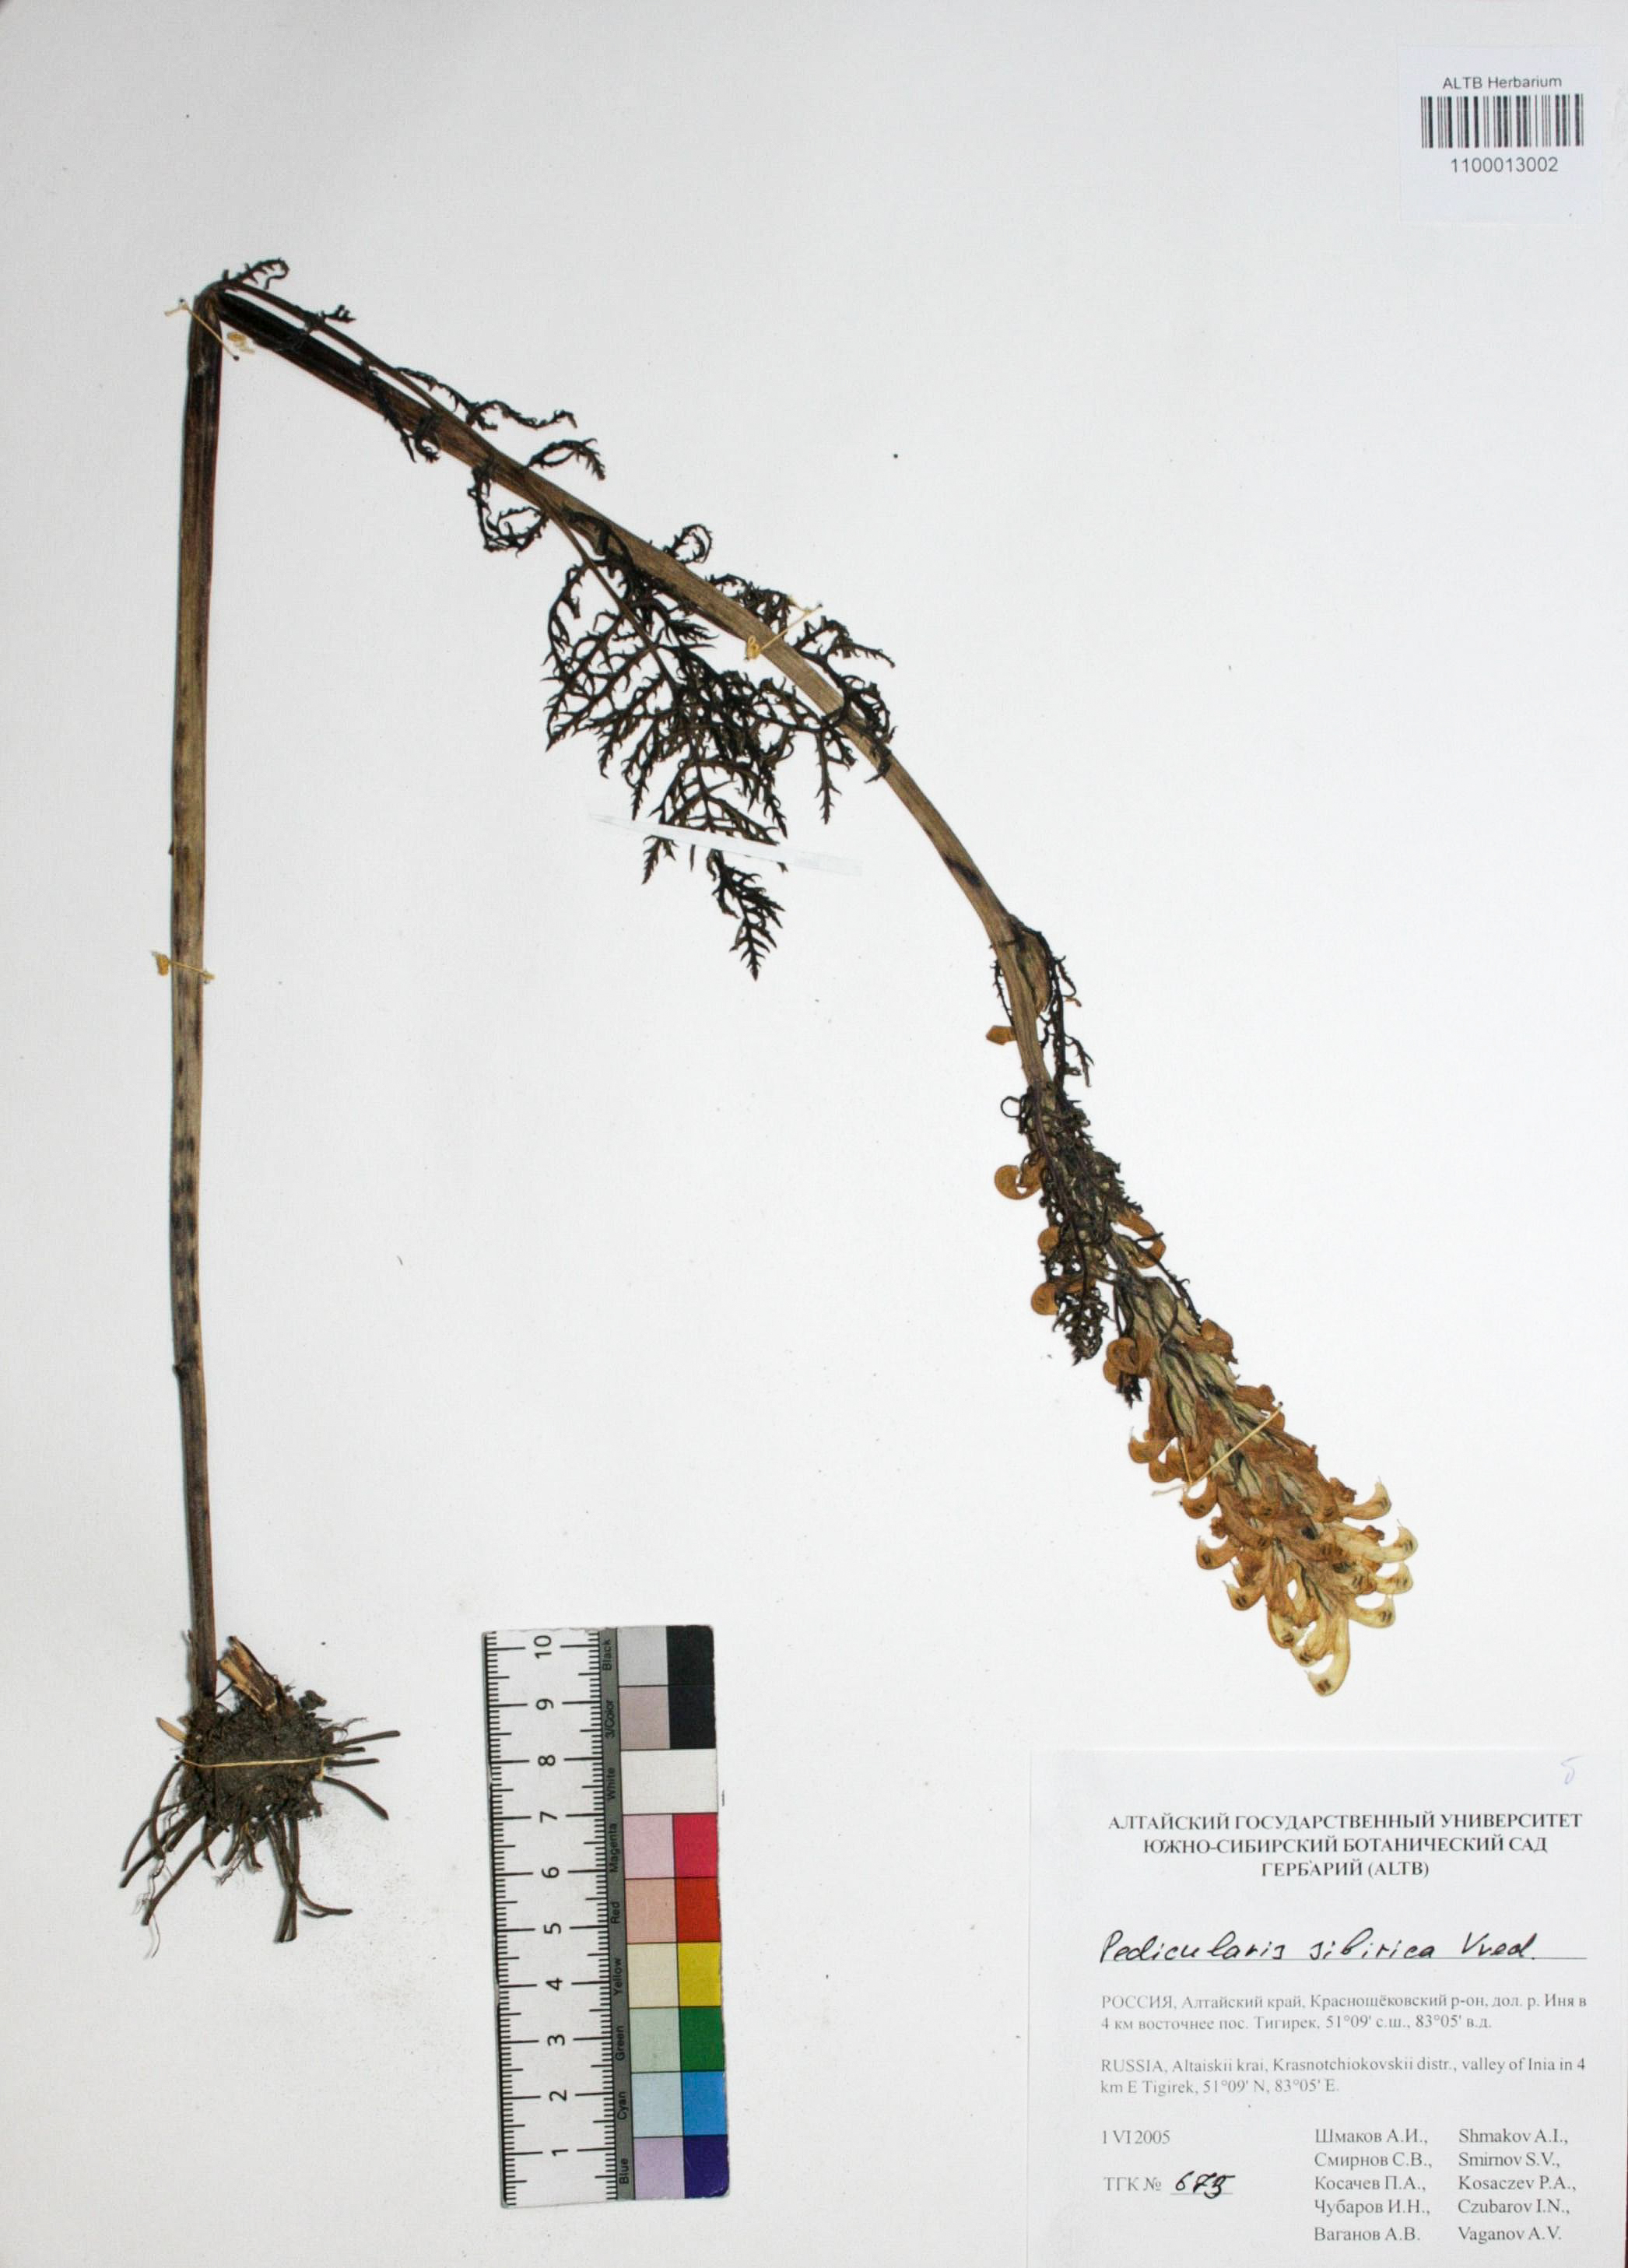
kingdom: Plantae
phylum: Tracheophyta
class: Magnoliopsida
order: Lamiales
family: Orobanchaceae
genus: Pedicularis
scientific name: Pedicularis sibirica
